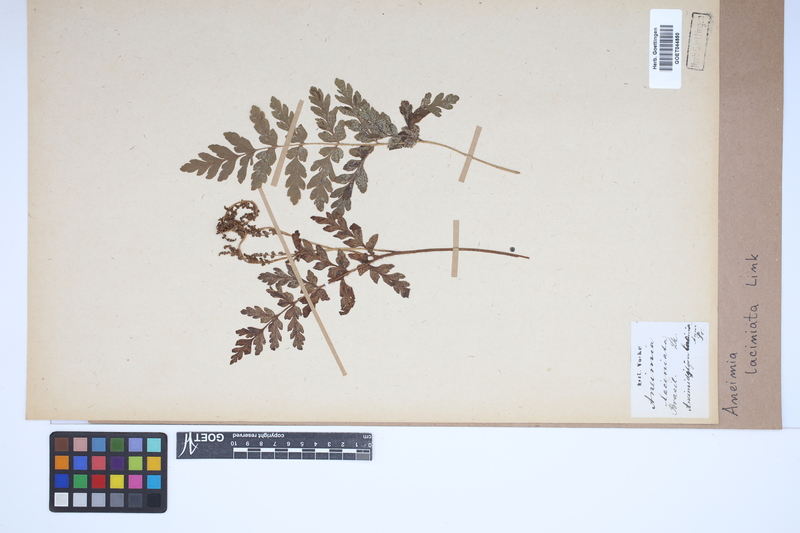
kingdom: Plantae
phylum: Tracheophyta
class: Polypodiopsida
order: Schizaeales
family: Anemiaceae
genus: Anemia
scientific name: Anemia phyllitidis
